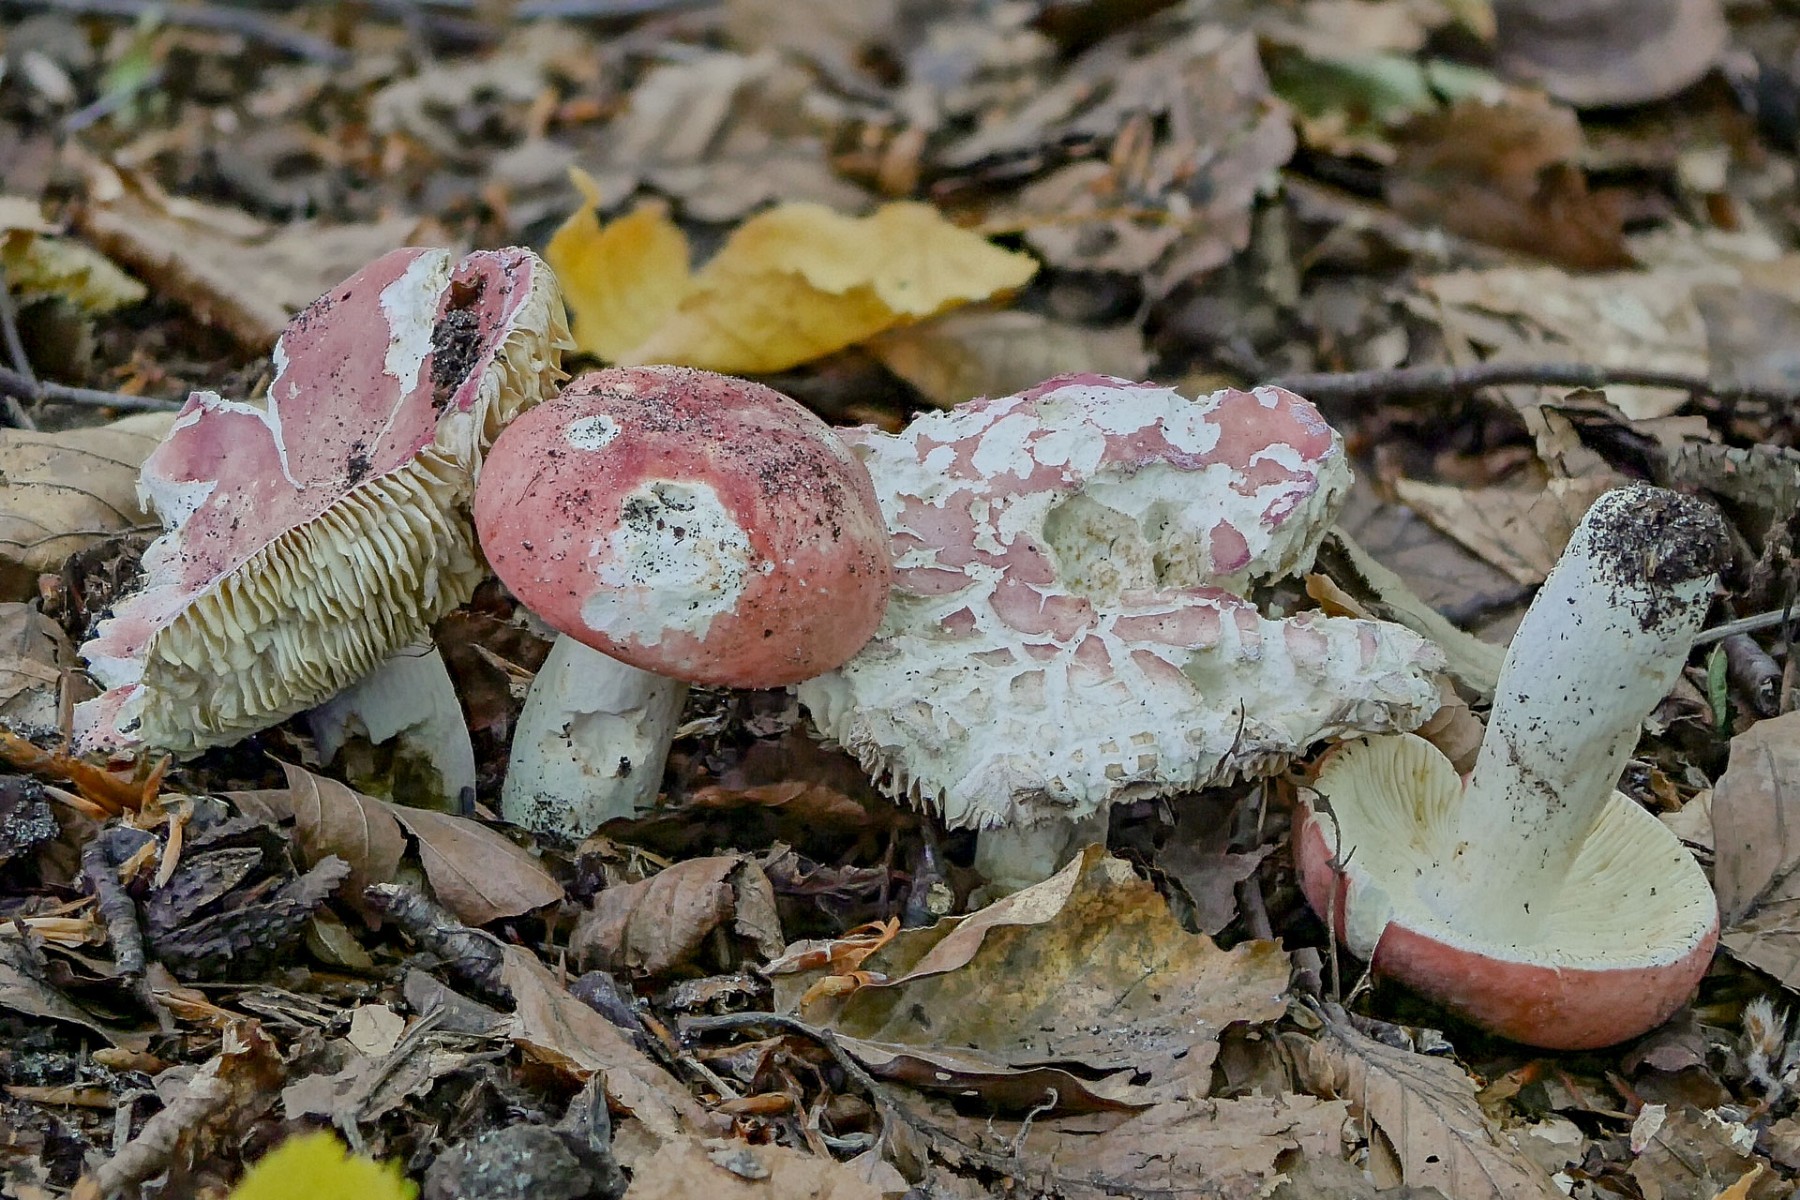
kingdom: Fungi
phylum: Basidiomycota
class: Agaricomycetes
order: Russulales
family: Russulaceae
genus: Russula
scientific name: Russula rosea
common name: fastkødet skørhat
